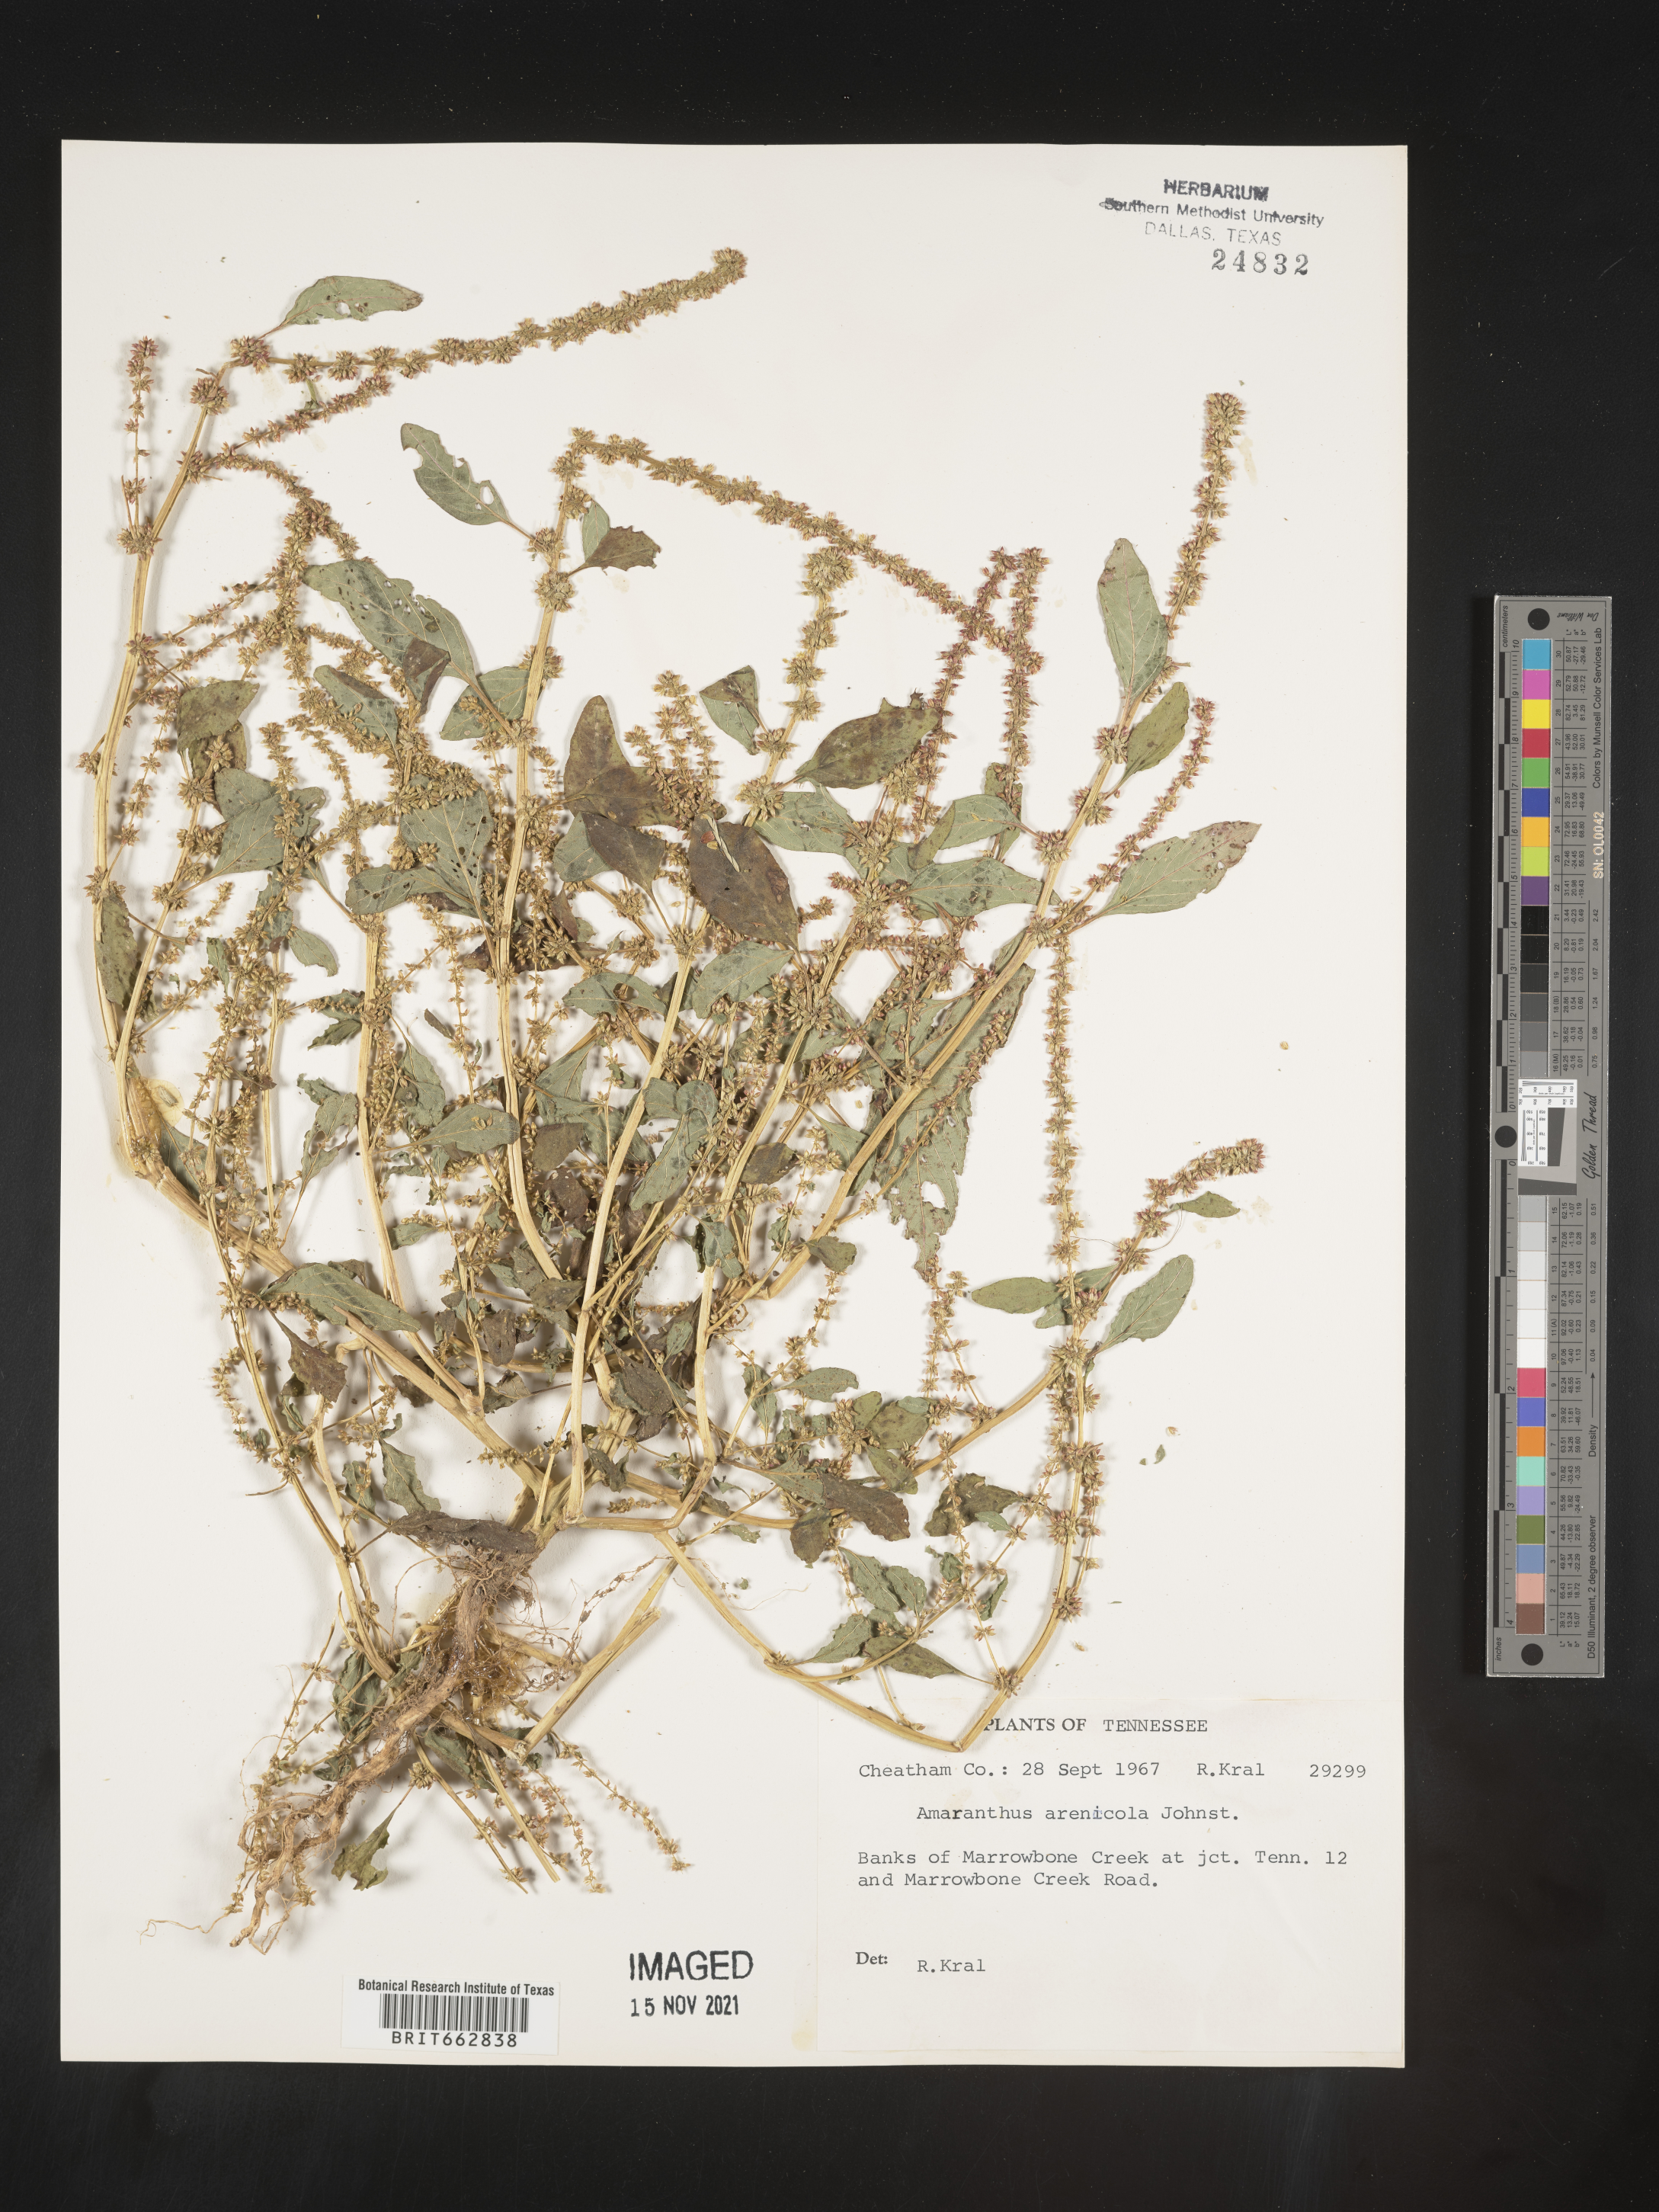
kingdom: Plantae
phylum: Tracheophyta
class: Magnoliopsida
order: Caryophyllales
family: Amaranthaceae
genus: Amaranthus
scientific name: Amaranthus arenicola
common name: Sandhills amaranth
